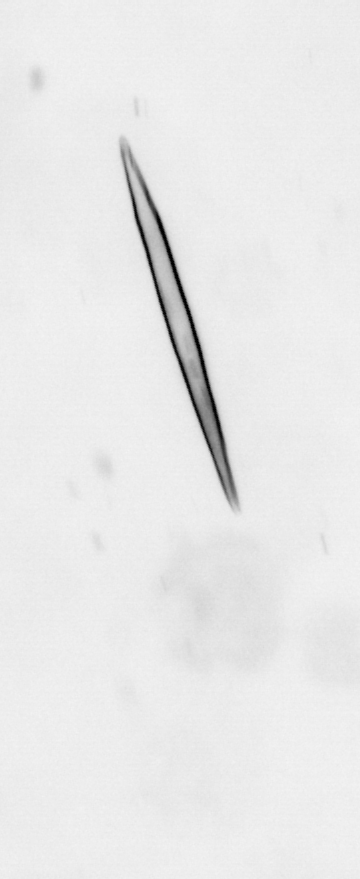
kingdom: Chromista
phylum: Ochrophyta
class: Bacillariophyceae
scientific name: Bacillariophyceae
